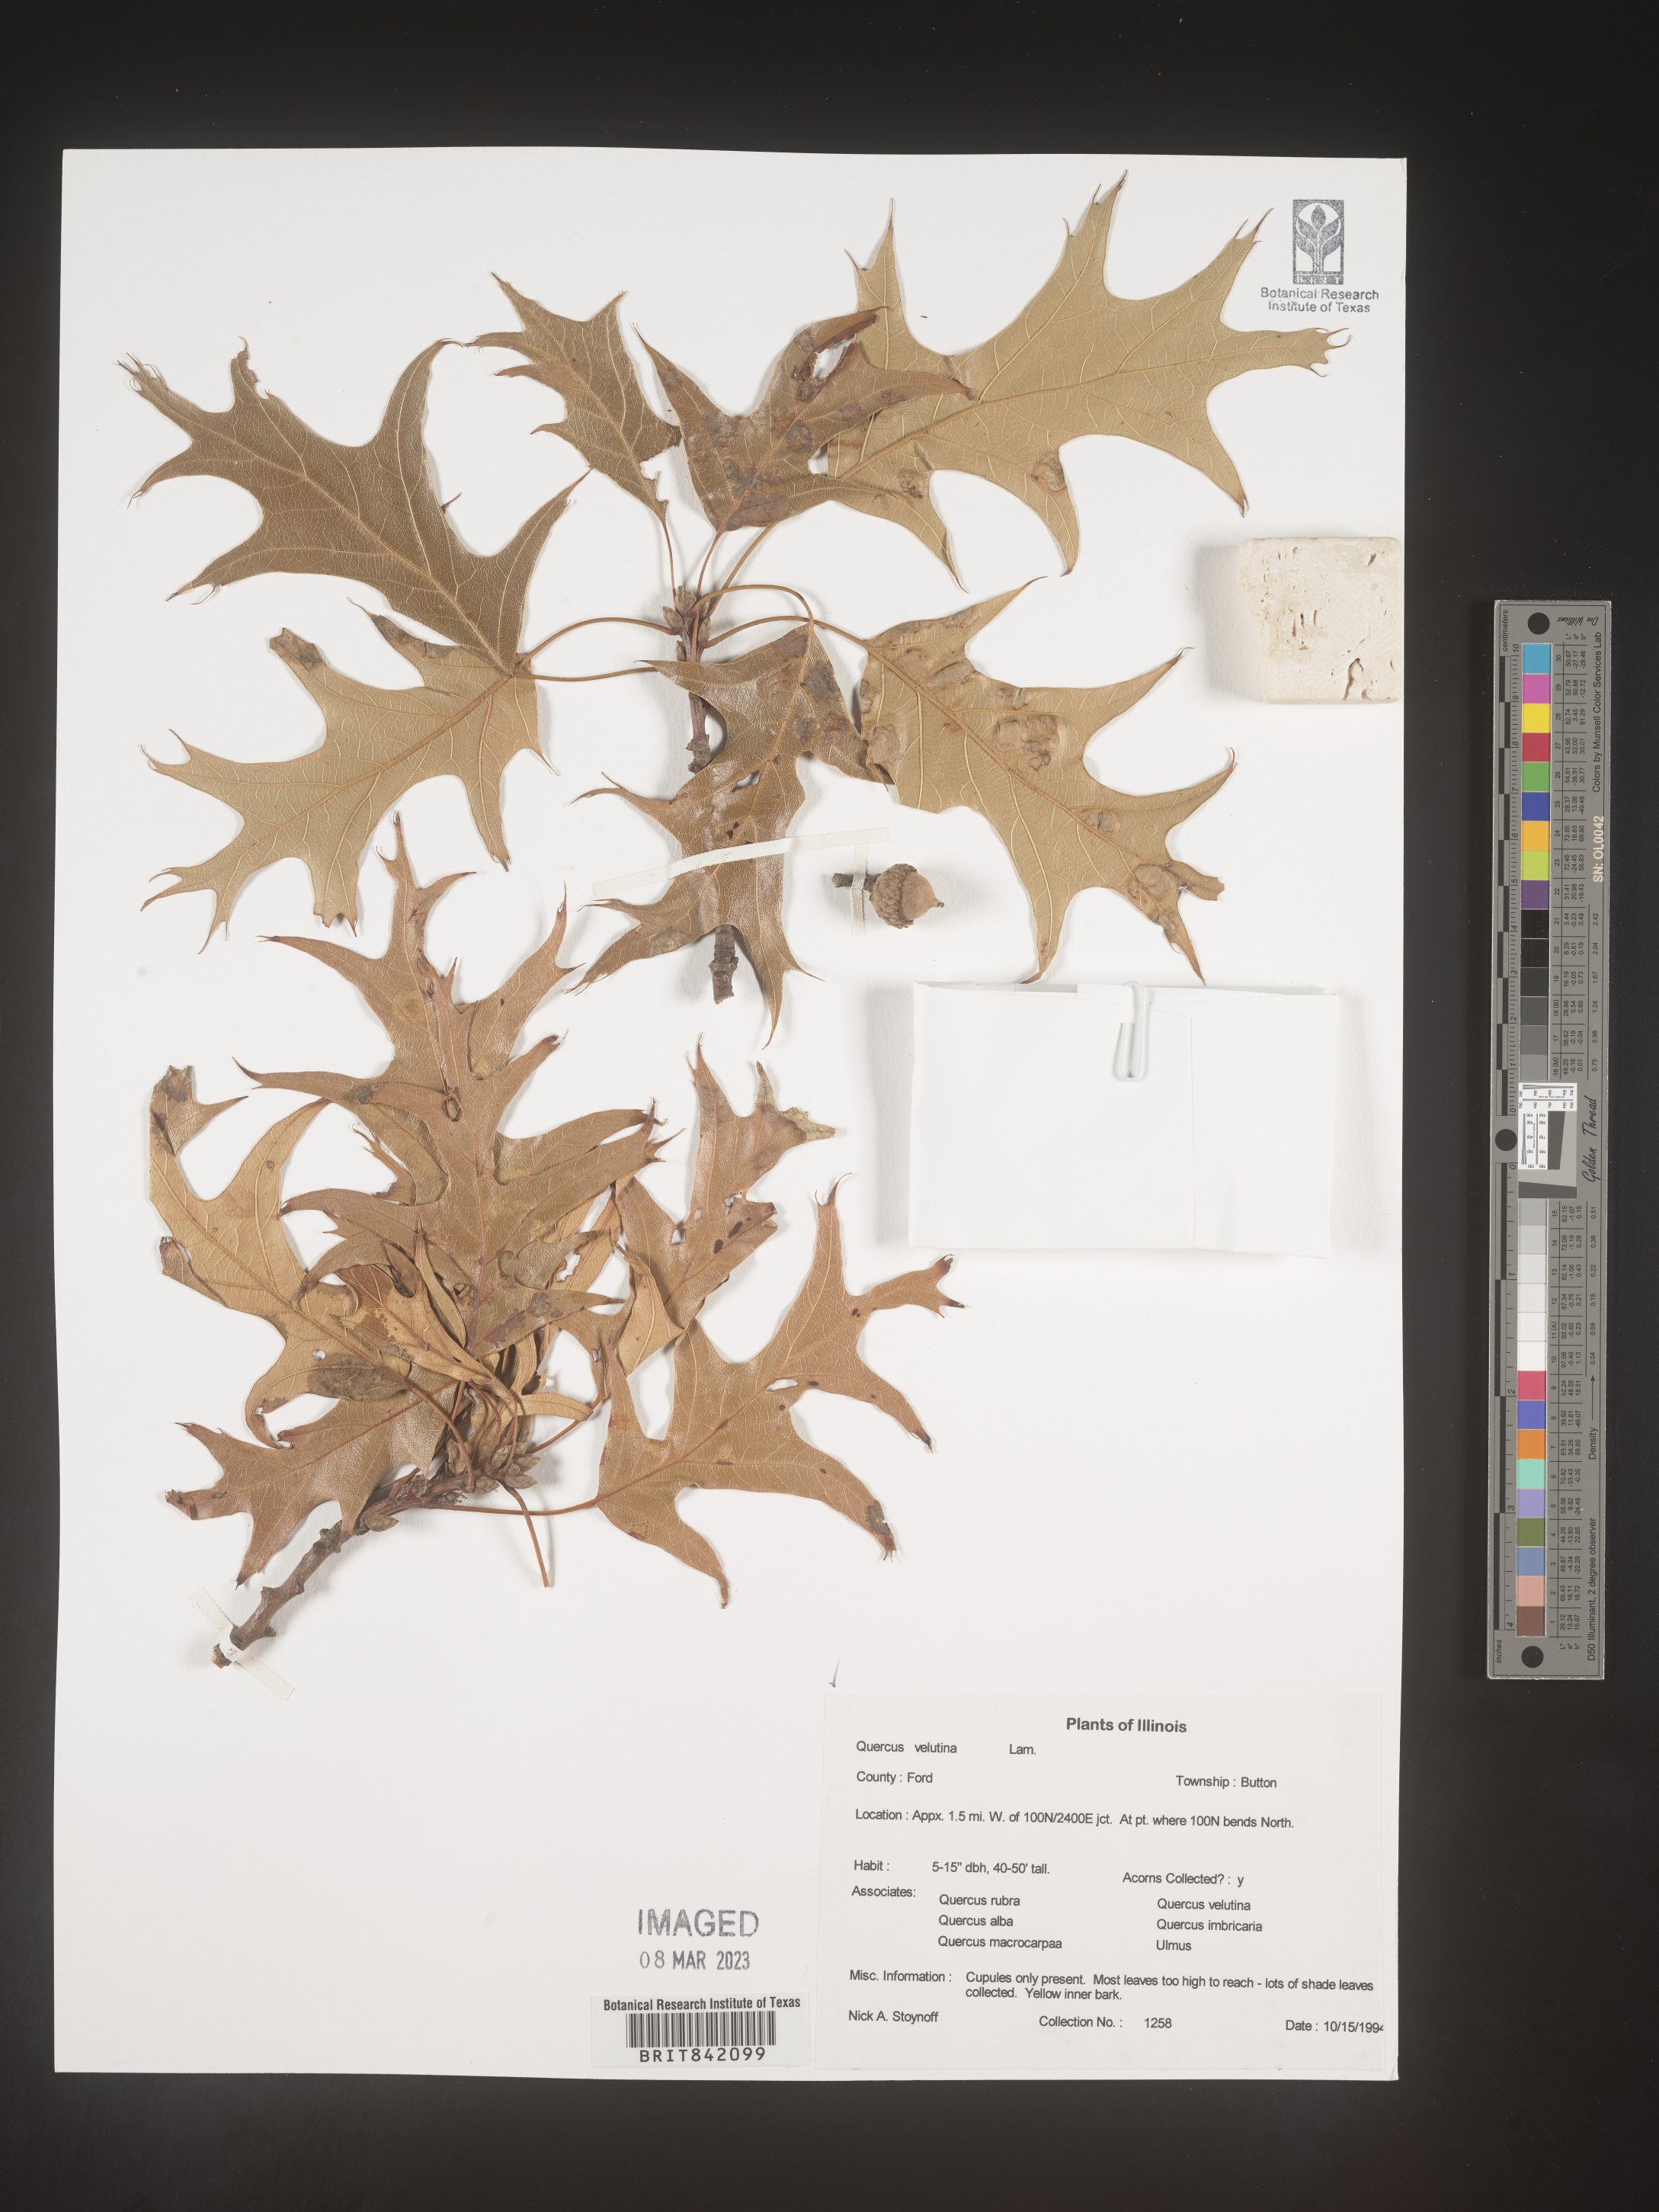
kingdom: Plantae
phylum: Tracheophyta
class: Magnoliopsida
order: Fagales
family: Fagaceae
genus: Quercus
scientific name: Quercus velutina
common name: Black oak
